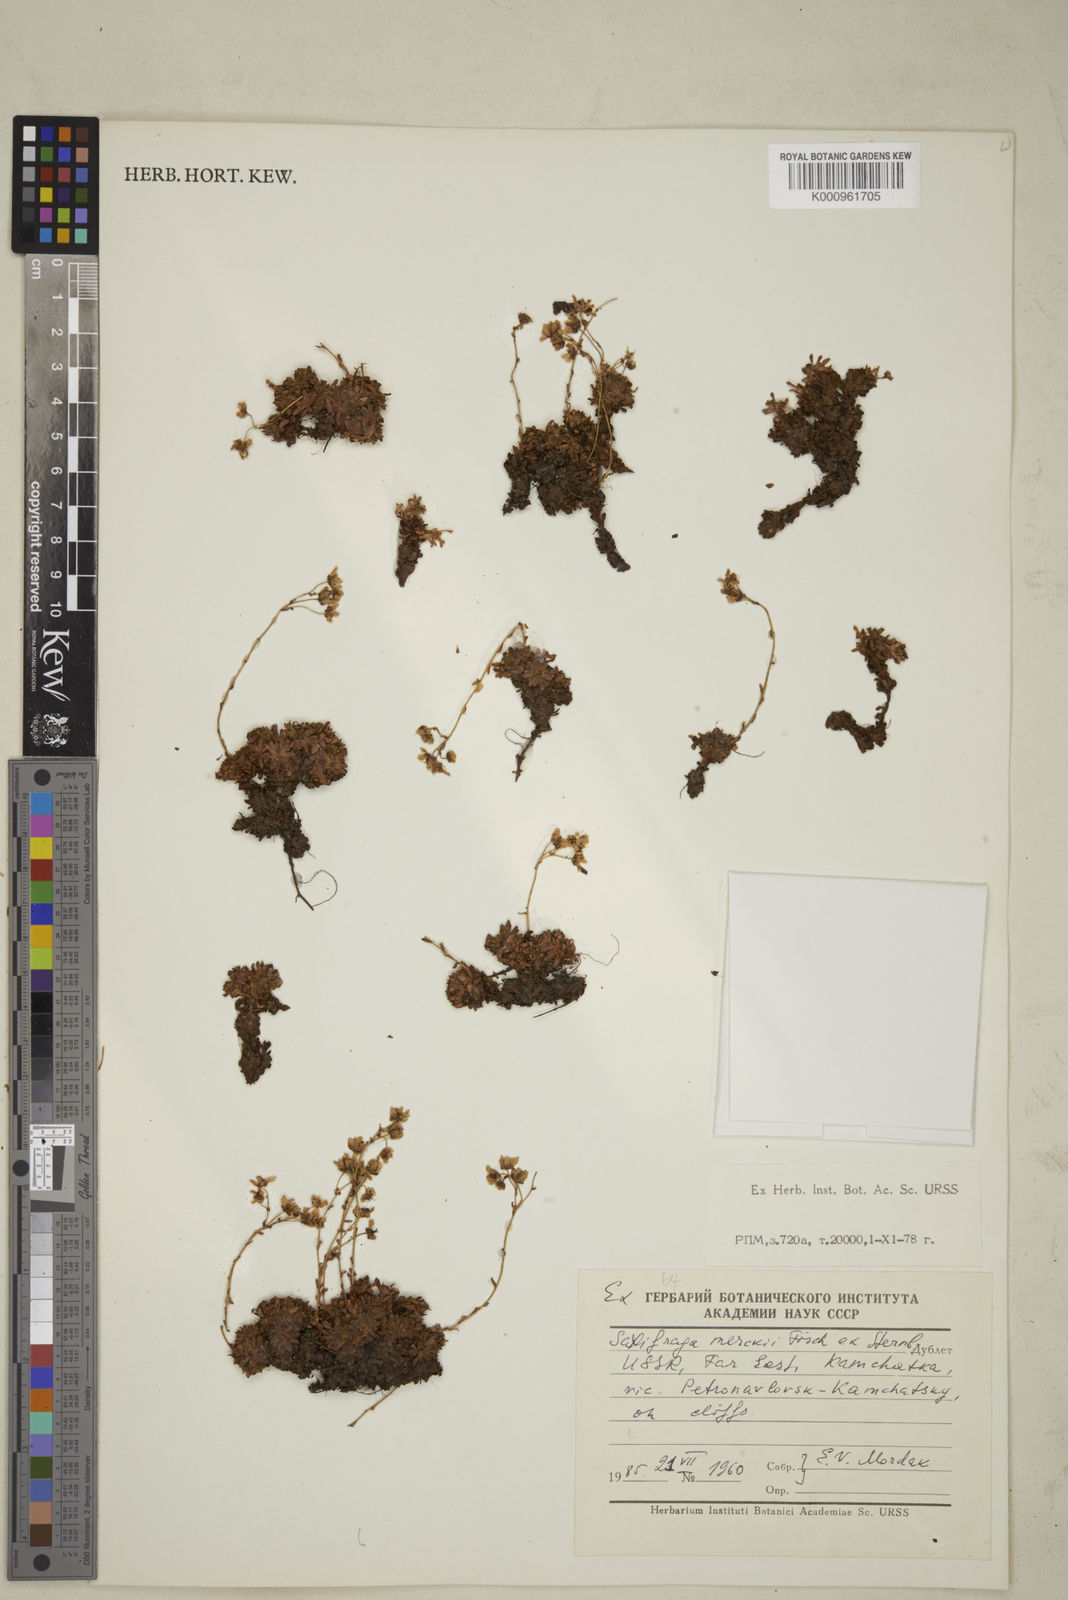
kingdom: Plantae
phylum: Tracheophyta
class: Magnoliopsida
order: Saxifragales
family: Saxifragaceae
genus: Micranthes
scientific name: Micranthes merkii
